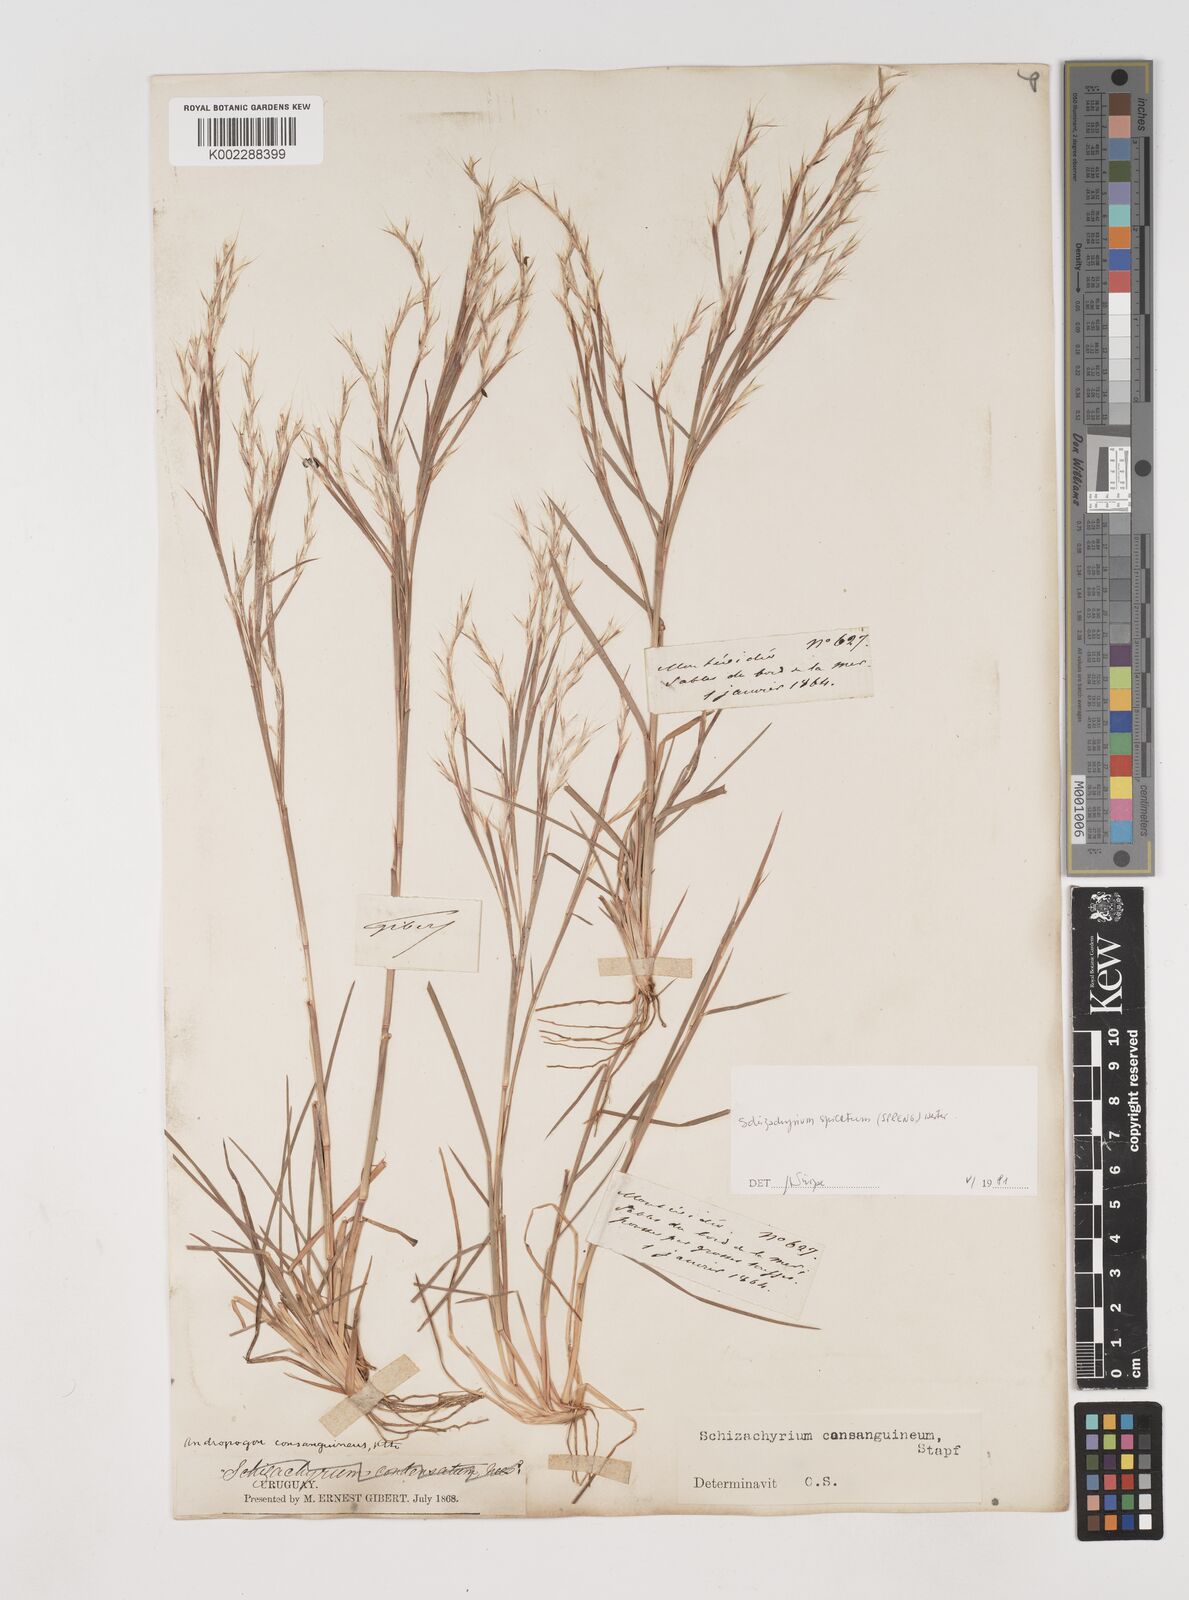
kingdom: Plantae
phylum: Tracheophyta
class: Liliopsida
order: Poales
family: Poaceae
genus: Schizachyrium
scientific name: Schizachyrium spicatum
